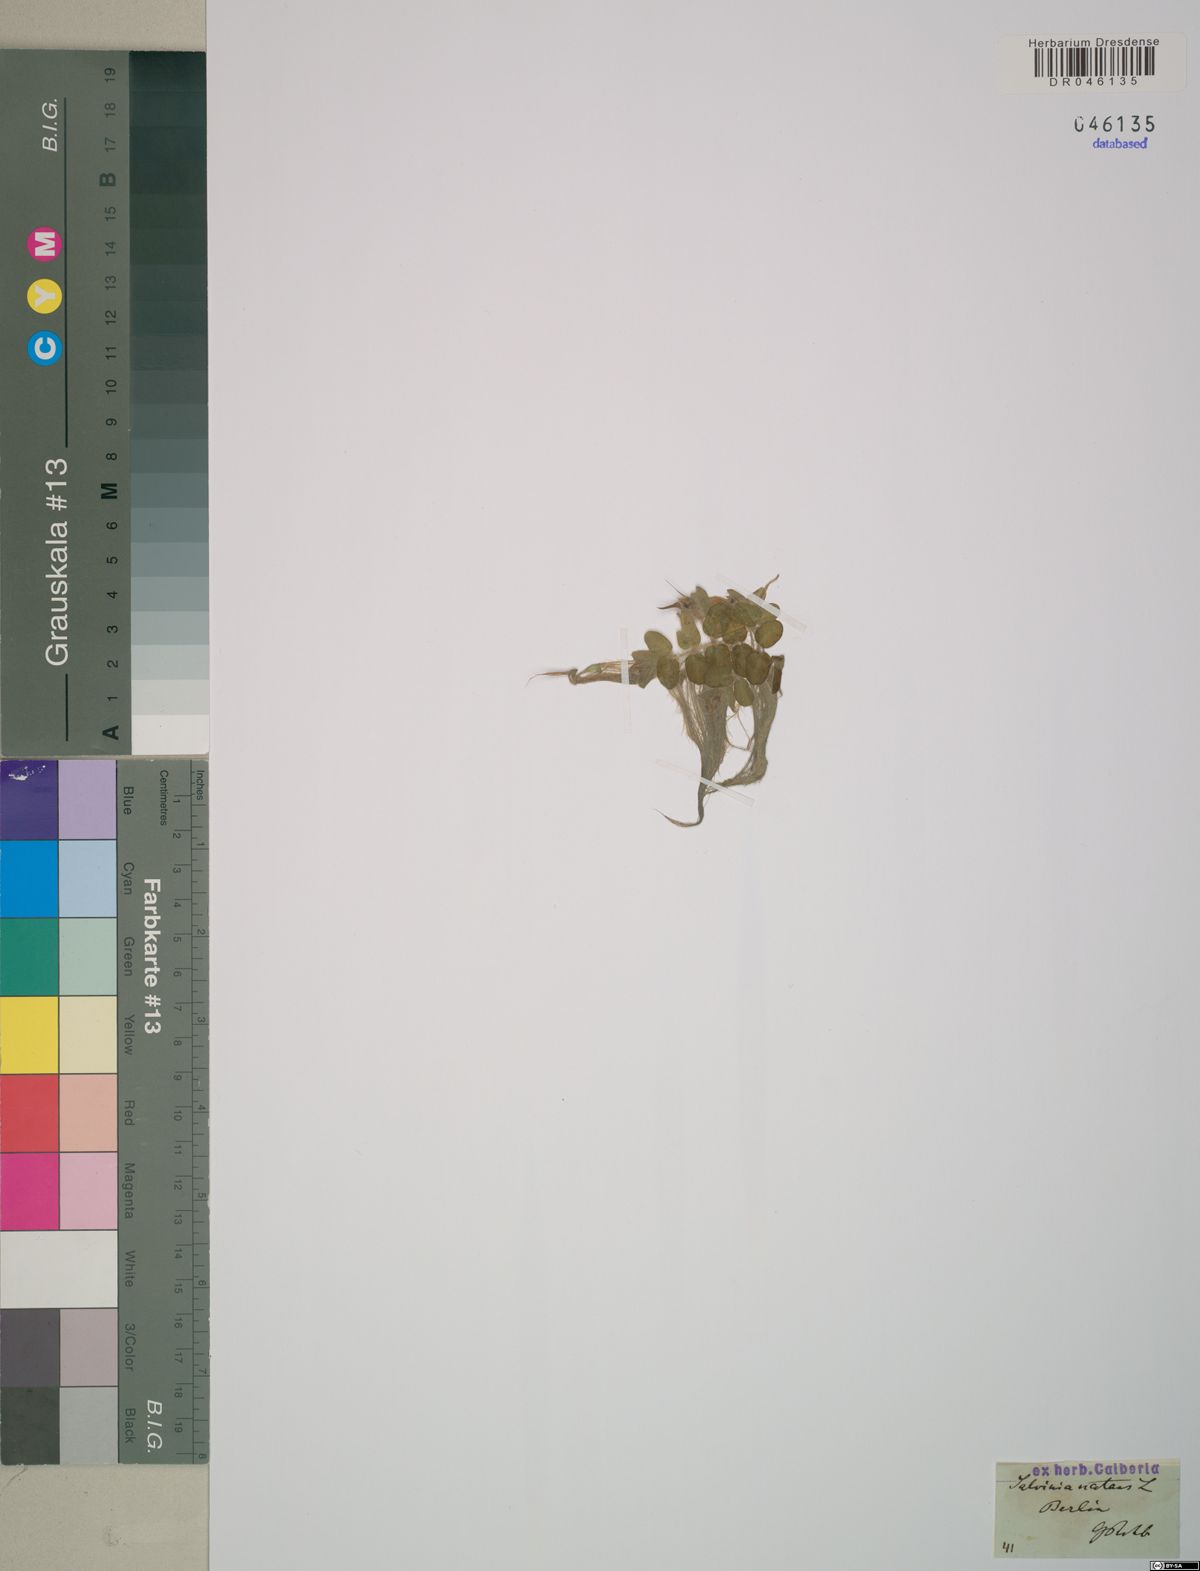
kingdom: Plantae
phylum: Tracheophyta
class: Polypodiopsida
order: Salviniales
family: Salviniaceae
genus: Salvinia
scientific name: Salvinia natans
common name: Floating fern
